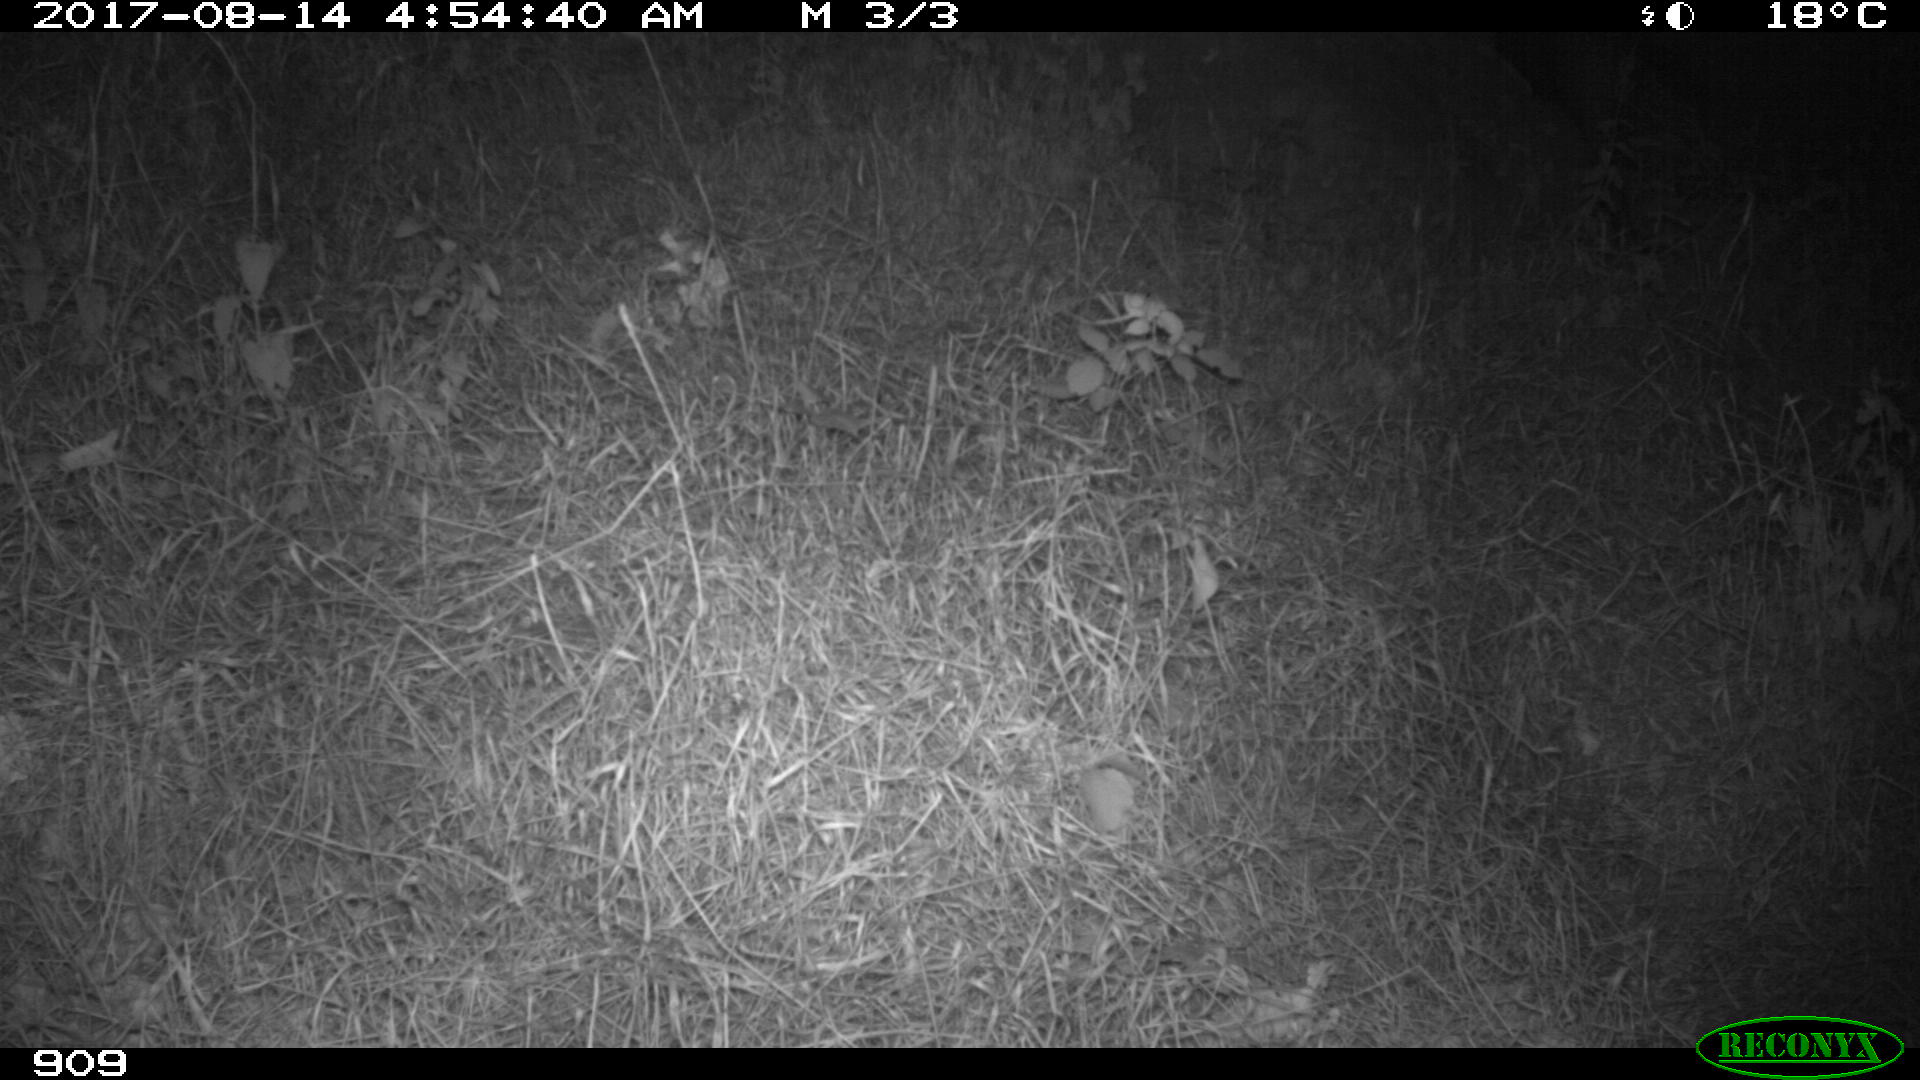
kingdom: Animalia
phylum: Chordata
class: Mammalia
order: Artiodactyla
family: Suidae
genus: Sus
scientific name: Sus scrofa
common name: Wild boar
